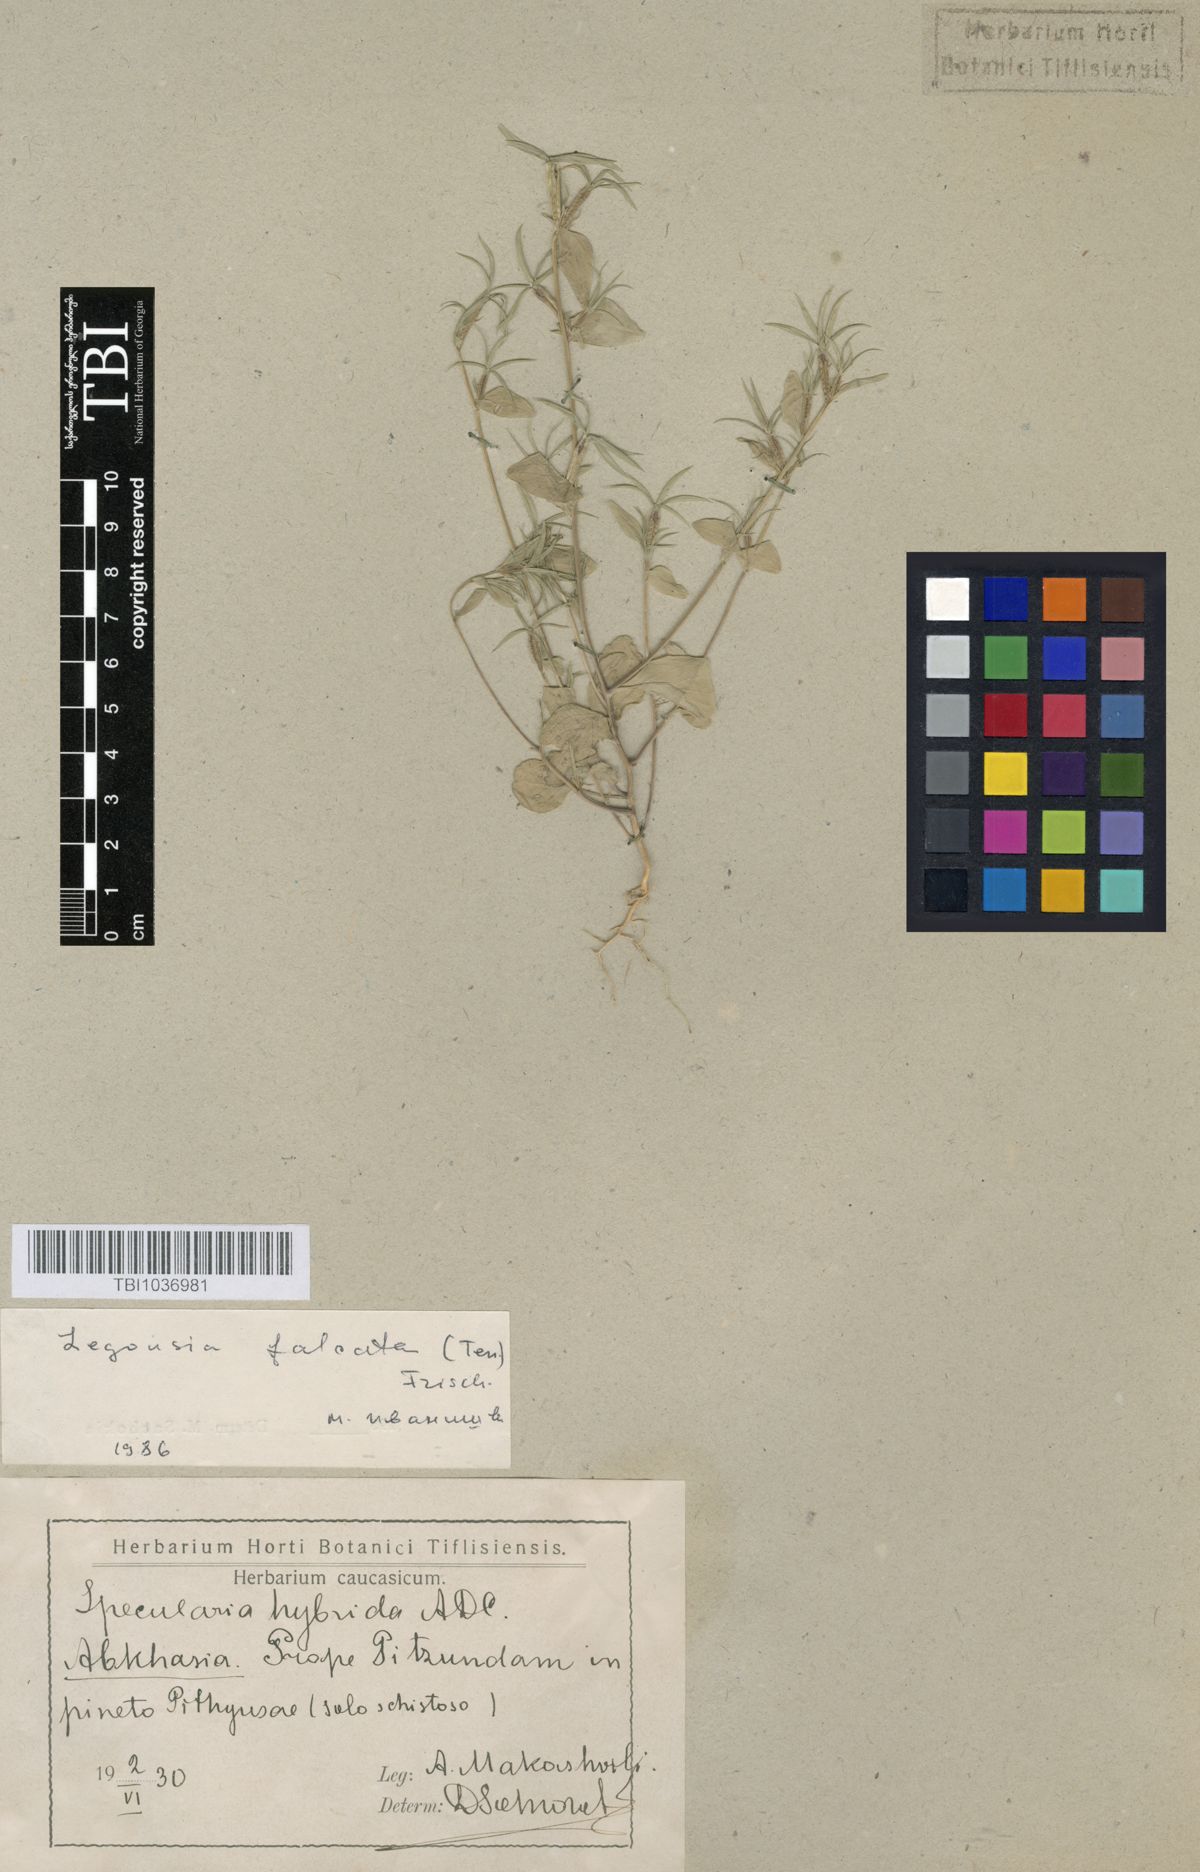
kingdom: Plantae
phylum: Tracheophyta
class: Magnoliopsida
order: Asterales
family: Campanulaceae
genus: Legousia
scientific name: Legousia falcata
